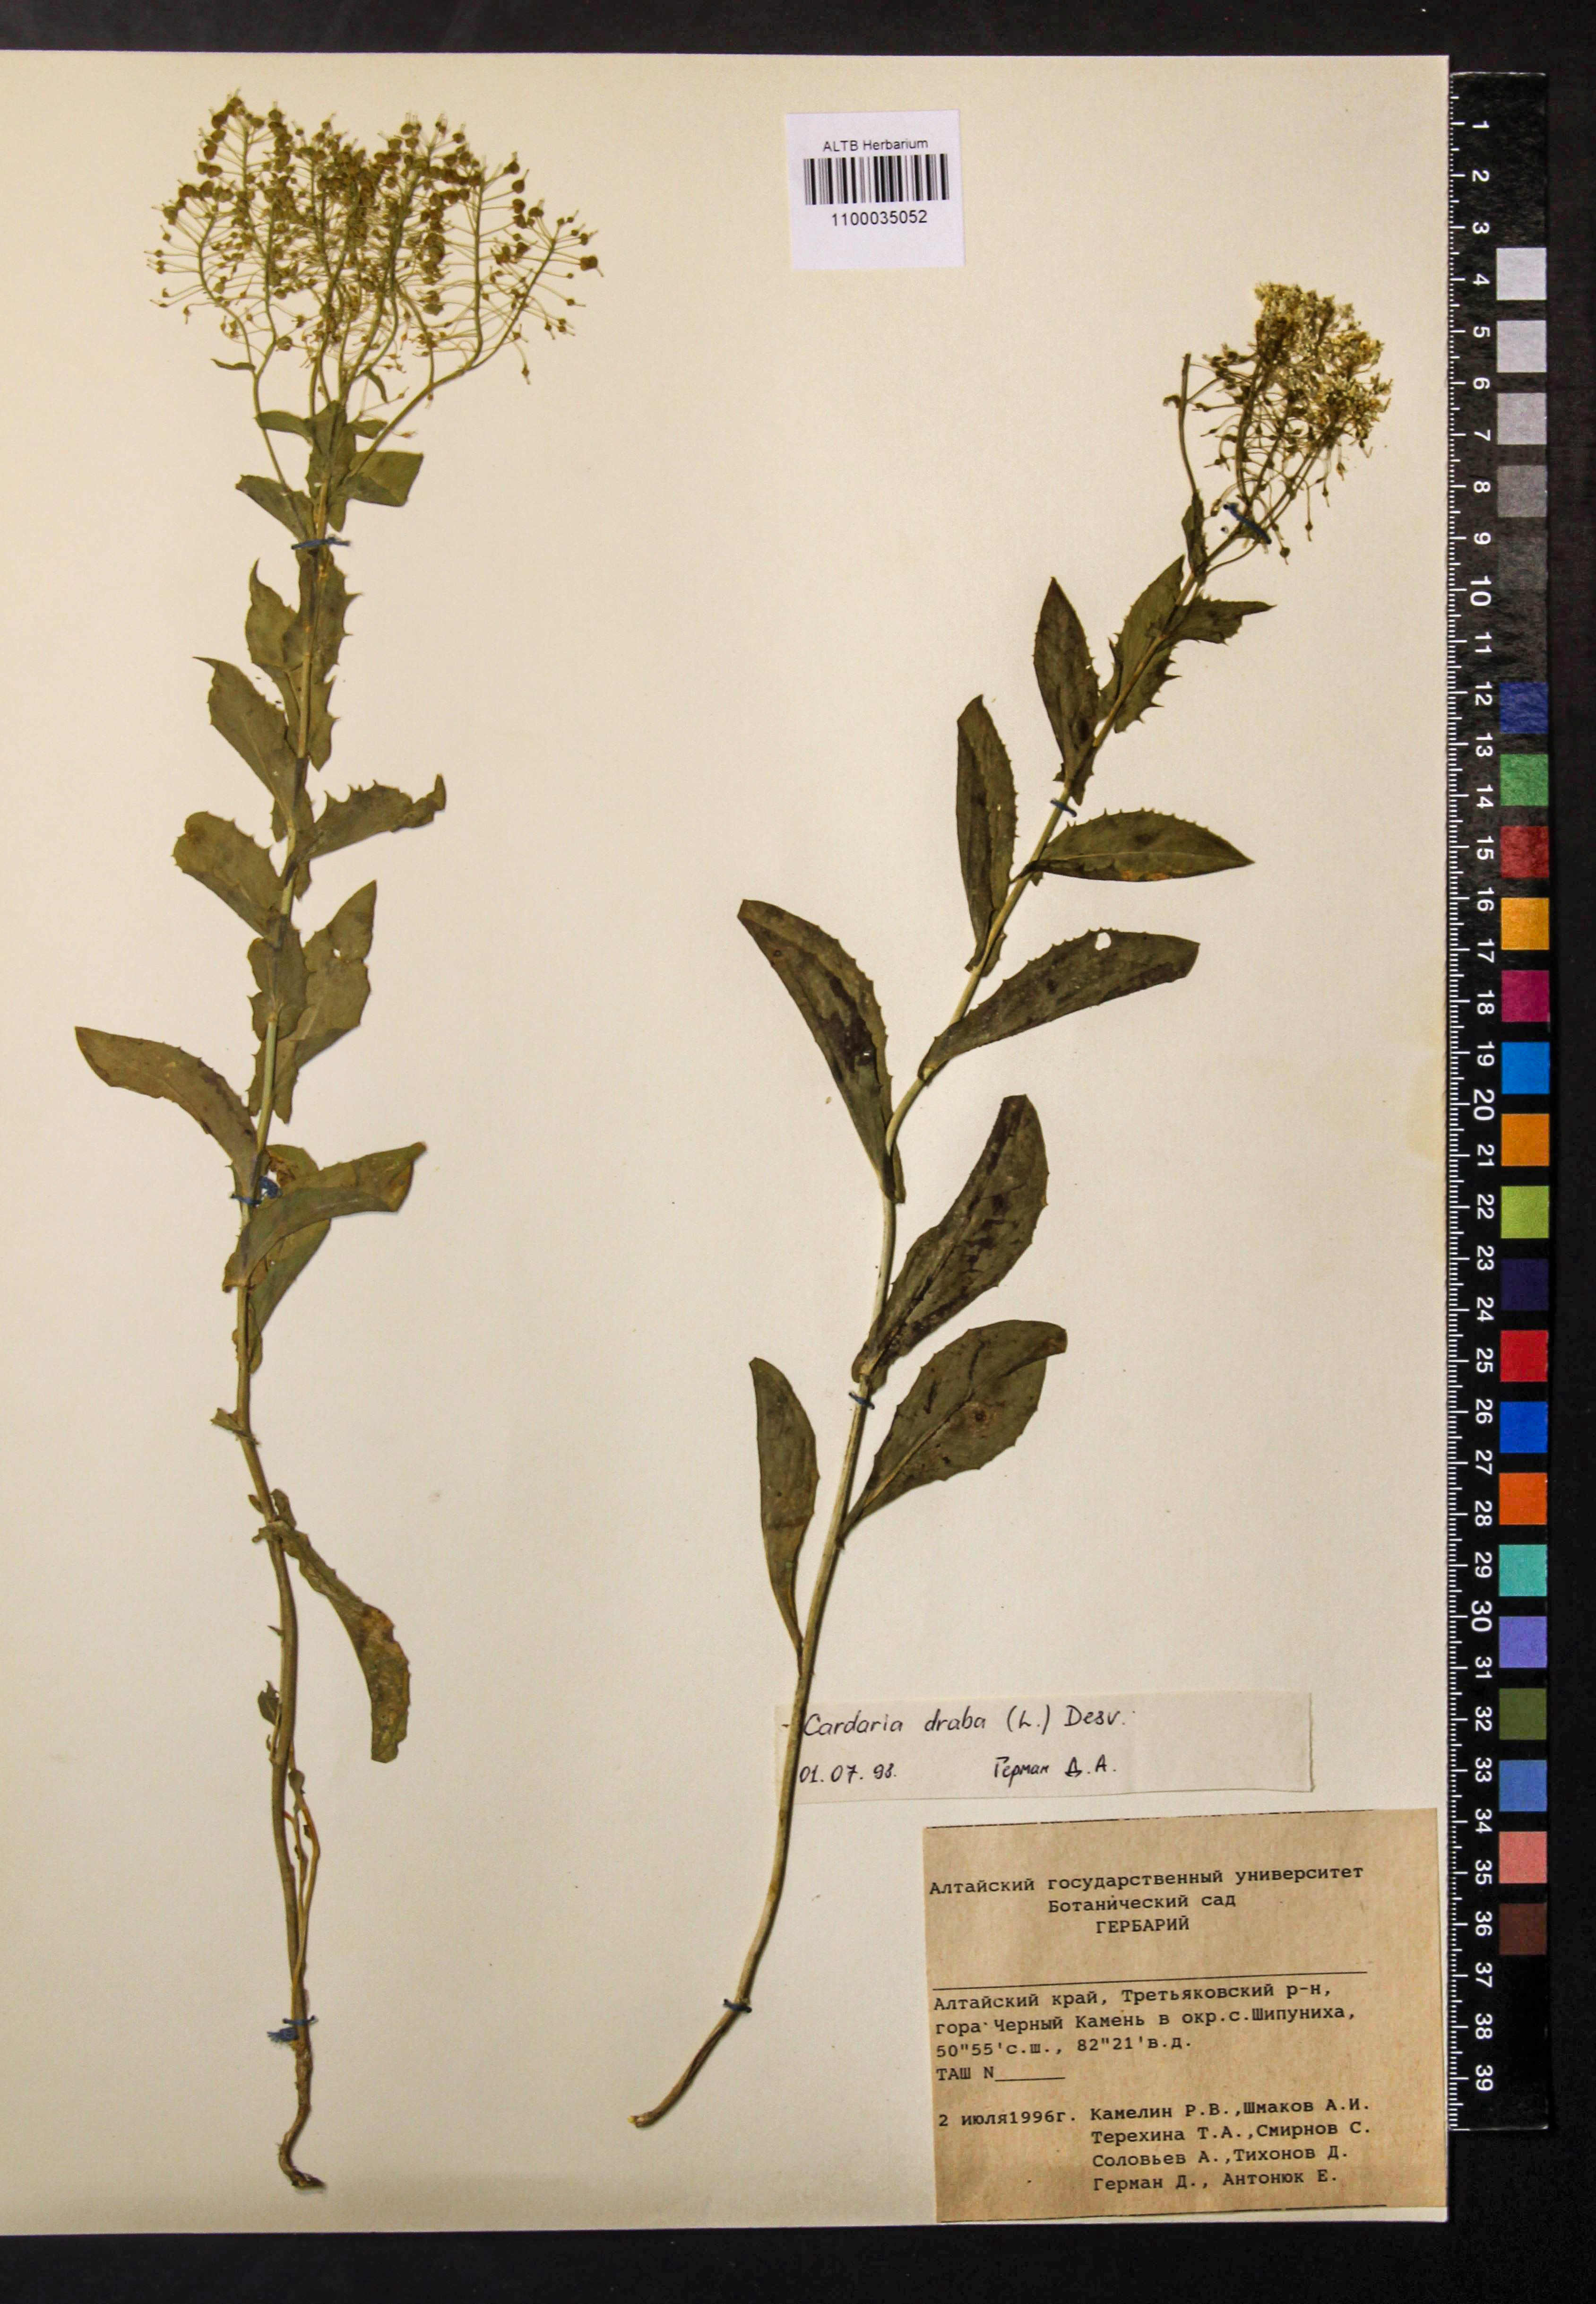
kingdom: Plantae
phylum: Tracheophyta
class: Magnoliopsida
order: Brassicales
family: Brassicaceae
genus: Lepidium
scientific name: Lepidium draba
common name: Hoary cress
